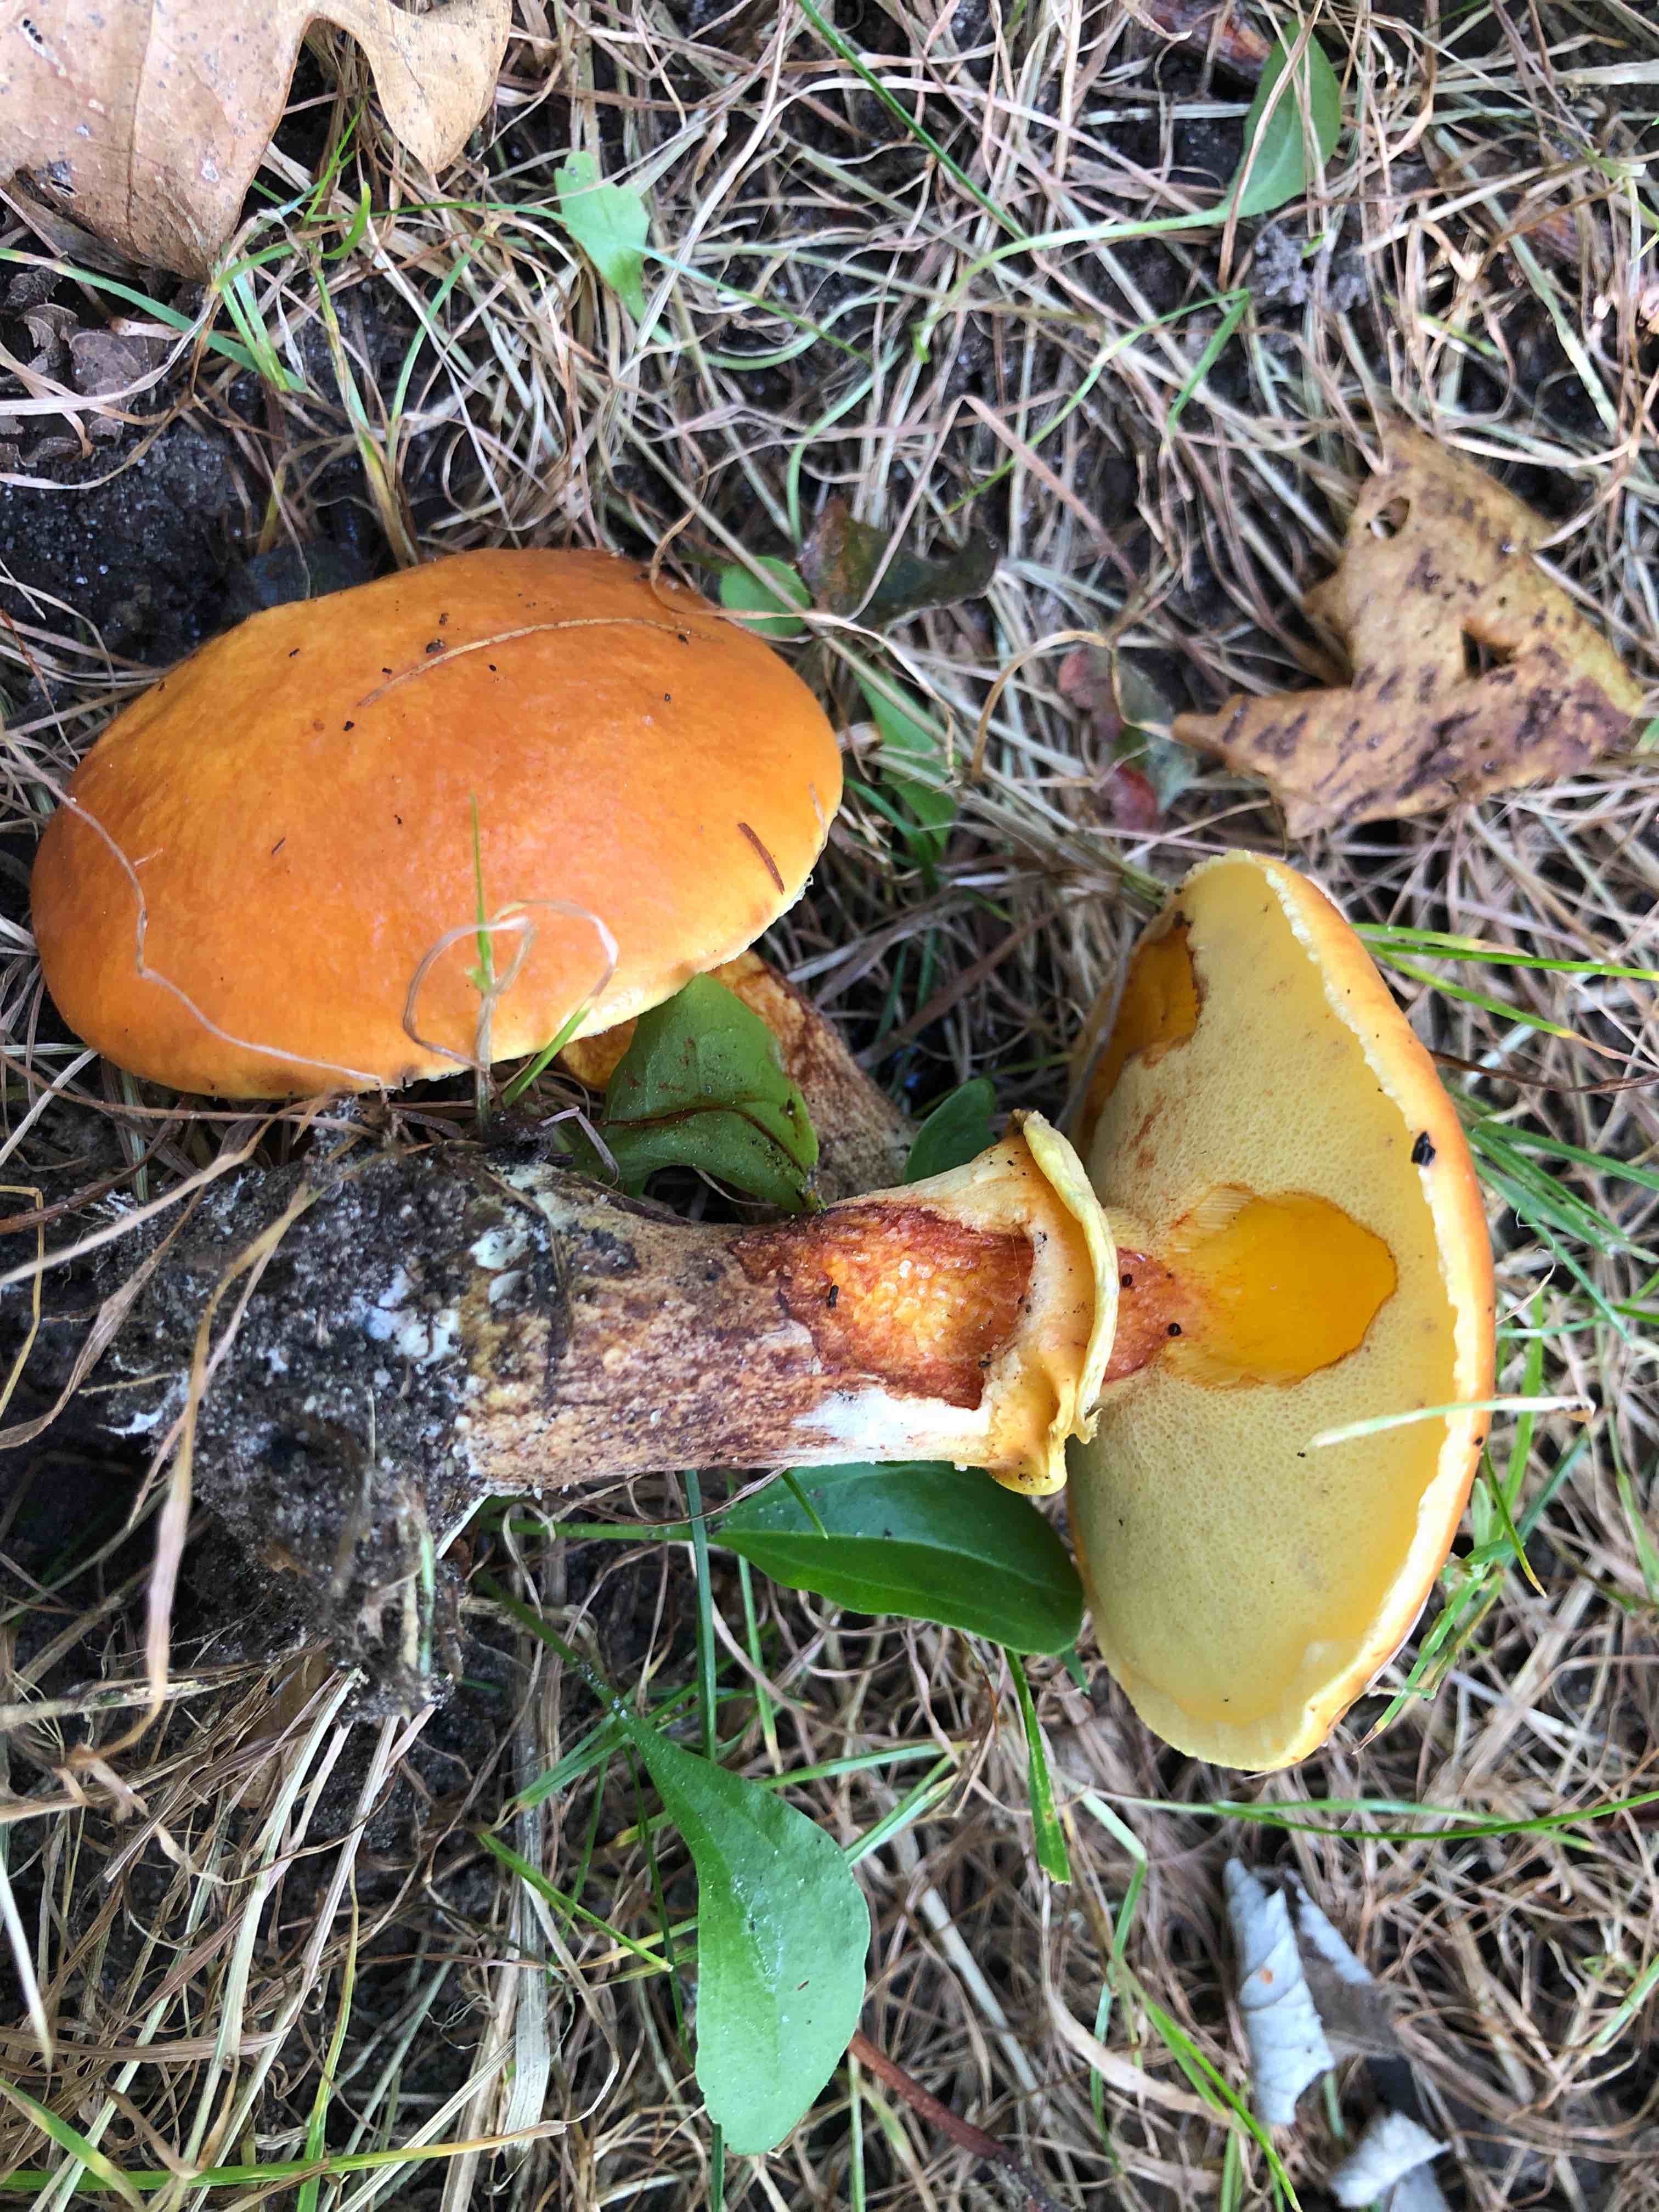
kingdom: Fungi
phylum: Basidiomycota
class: Agaricomycetes
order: Boletales
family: Suillaceae
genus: Suillus
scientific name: Suillus grevillei
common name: lærke-slimrørhat
